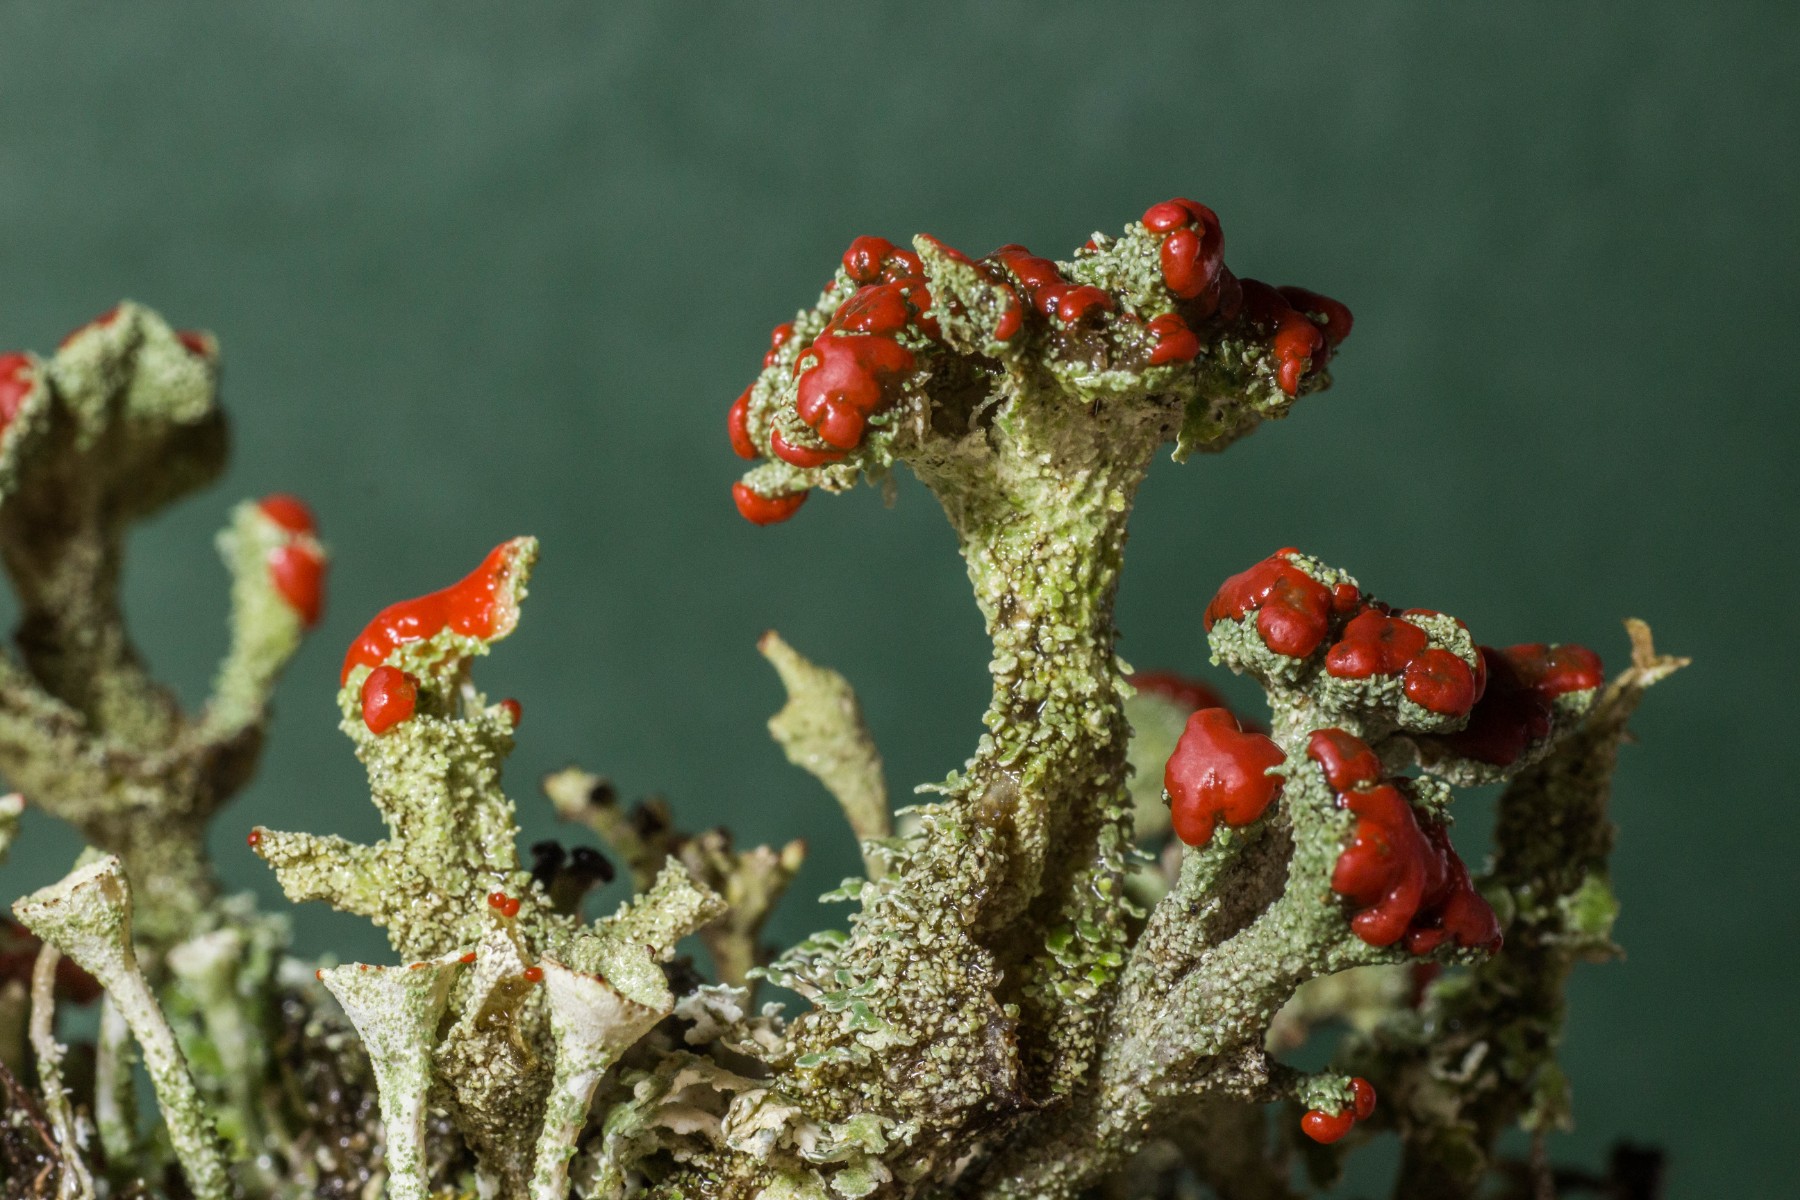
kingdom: Fungi
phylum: Ascomycota
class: Lecanoromycetes
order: Lecanorales
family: Cladoniaceae
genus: Cladonia
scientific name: Cladonia diversa
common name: rød bægerlav
